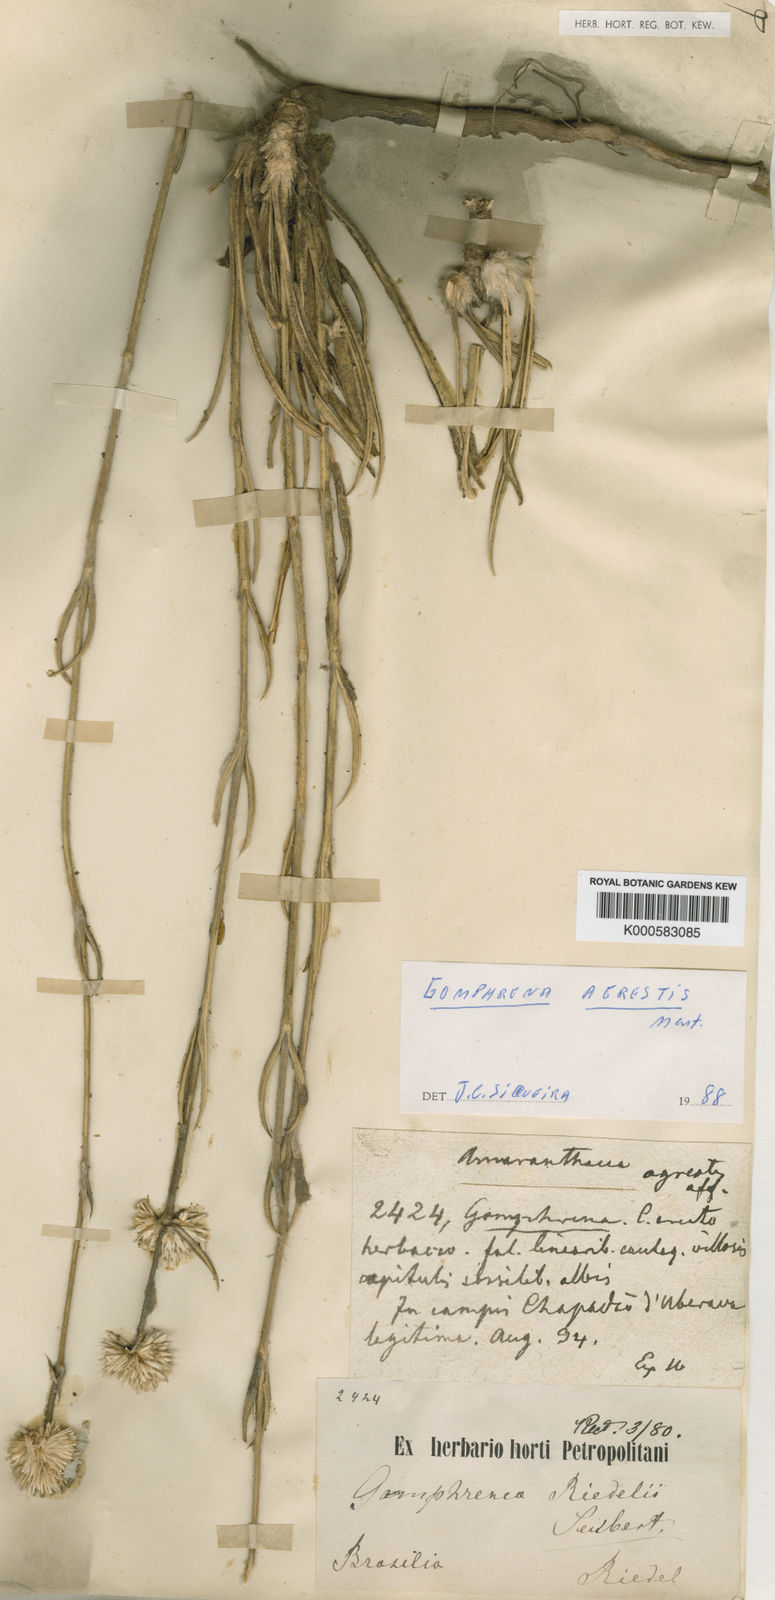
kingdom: Plantae
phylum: Tracheophyta
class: Magnoliopsida
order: Caryophyllales
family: Amaranthaceae
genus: Gomphrena
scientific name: Gomphrena riedelii
